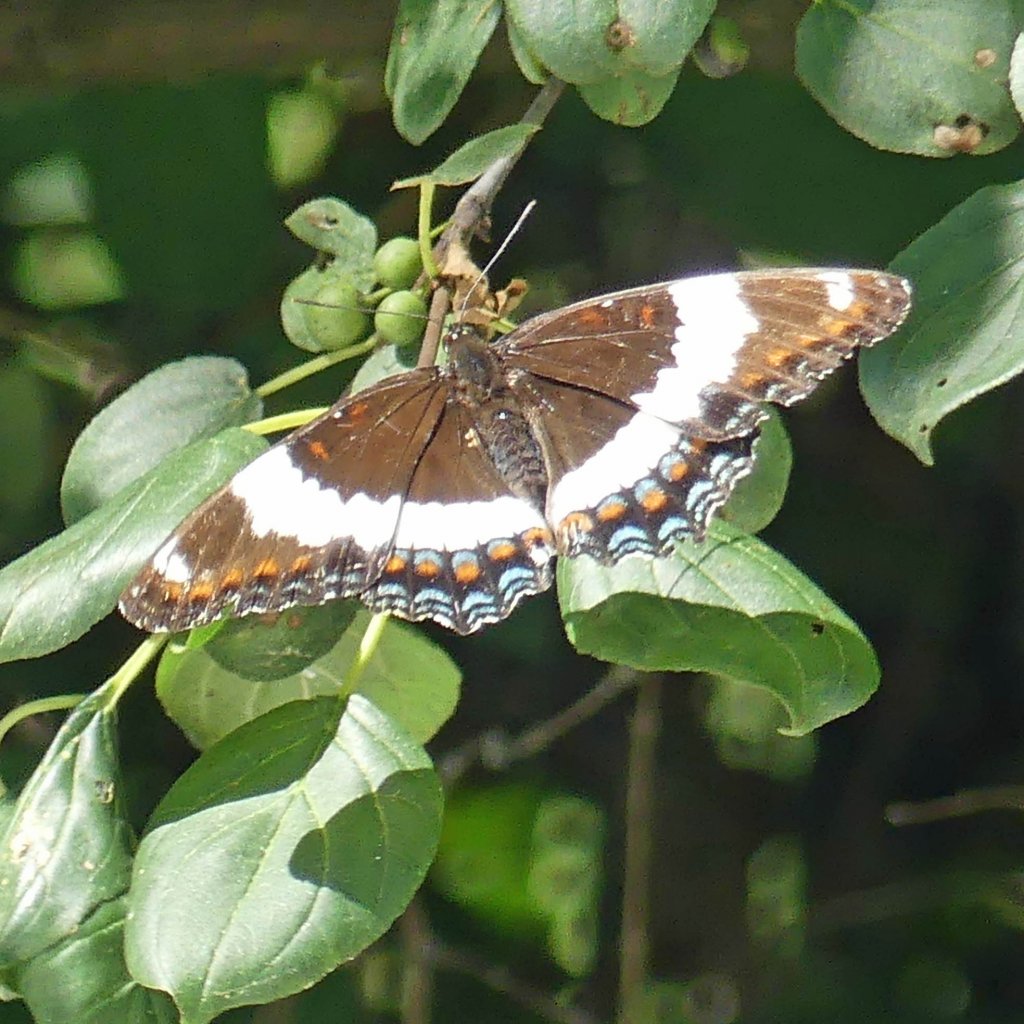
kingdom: Animalia
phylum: Arthropoda
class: Insecta
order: Lepidoptera
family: Nymphalidae
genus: Limenitis
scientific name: Limenitis arthemis
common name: Red-spotted Admiral
